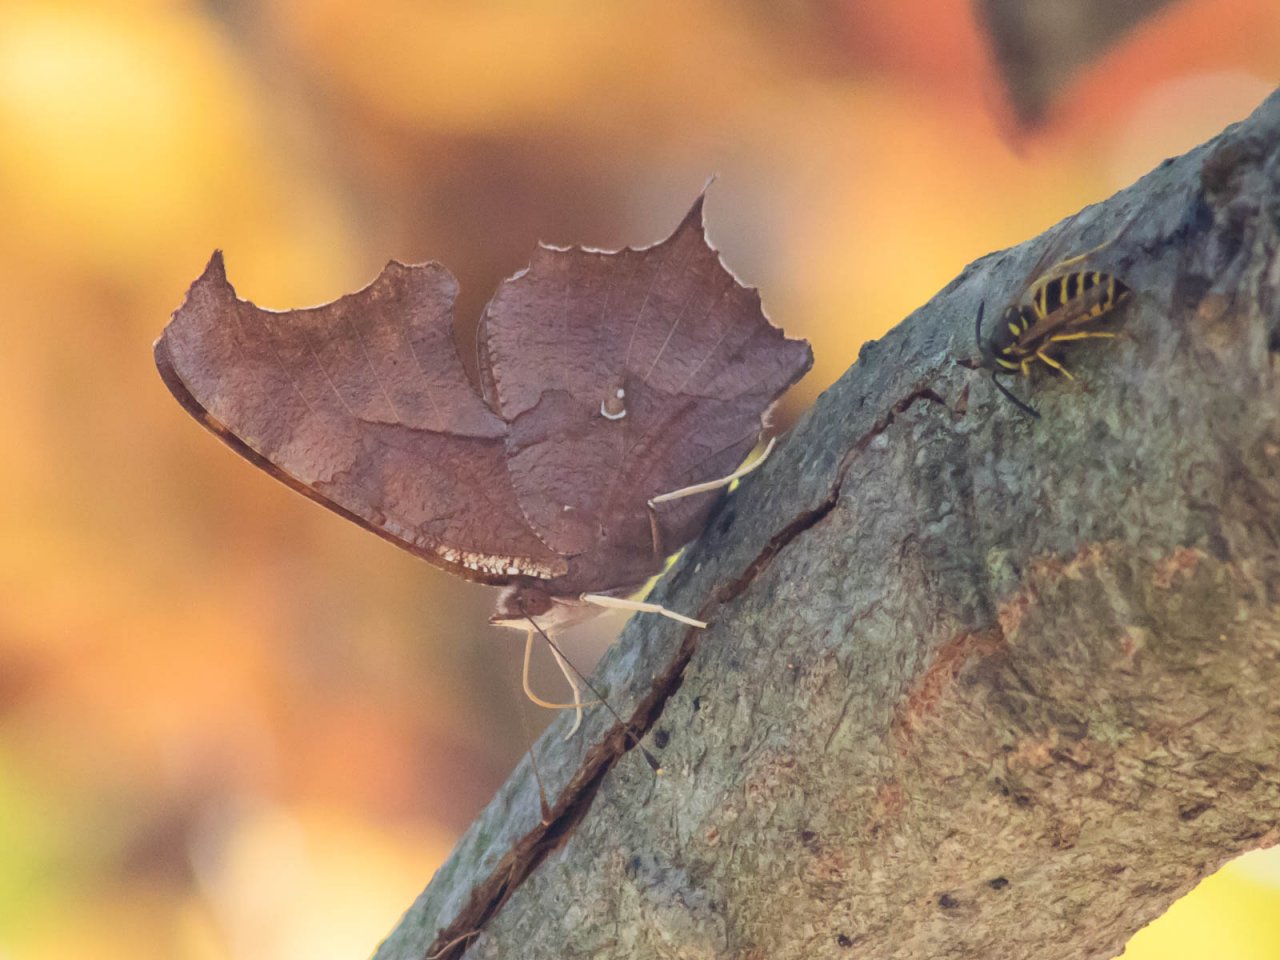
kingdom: Animalia
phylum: Arthropoda
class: Insecta
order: Lepidoptera
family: Nymphalidae
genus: Polygonia
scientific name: Polygonia interrogationis
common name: Question Mark
